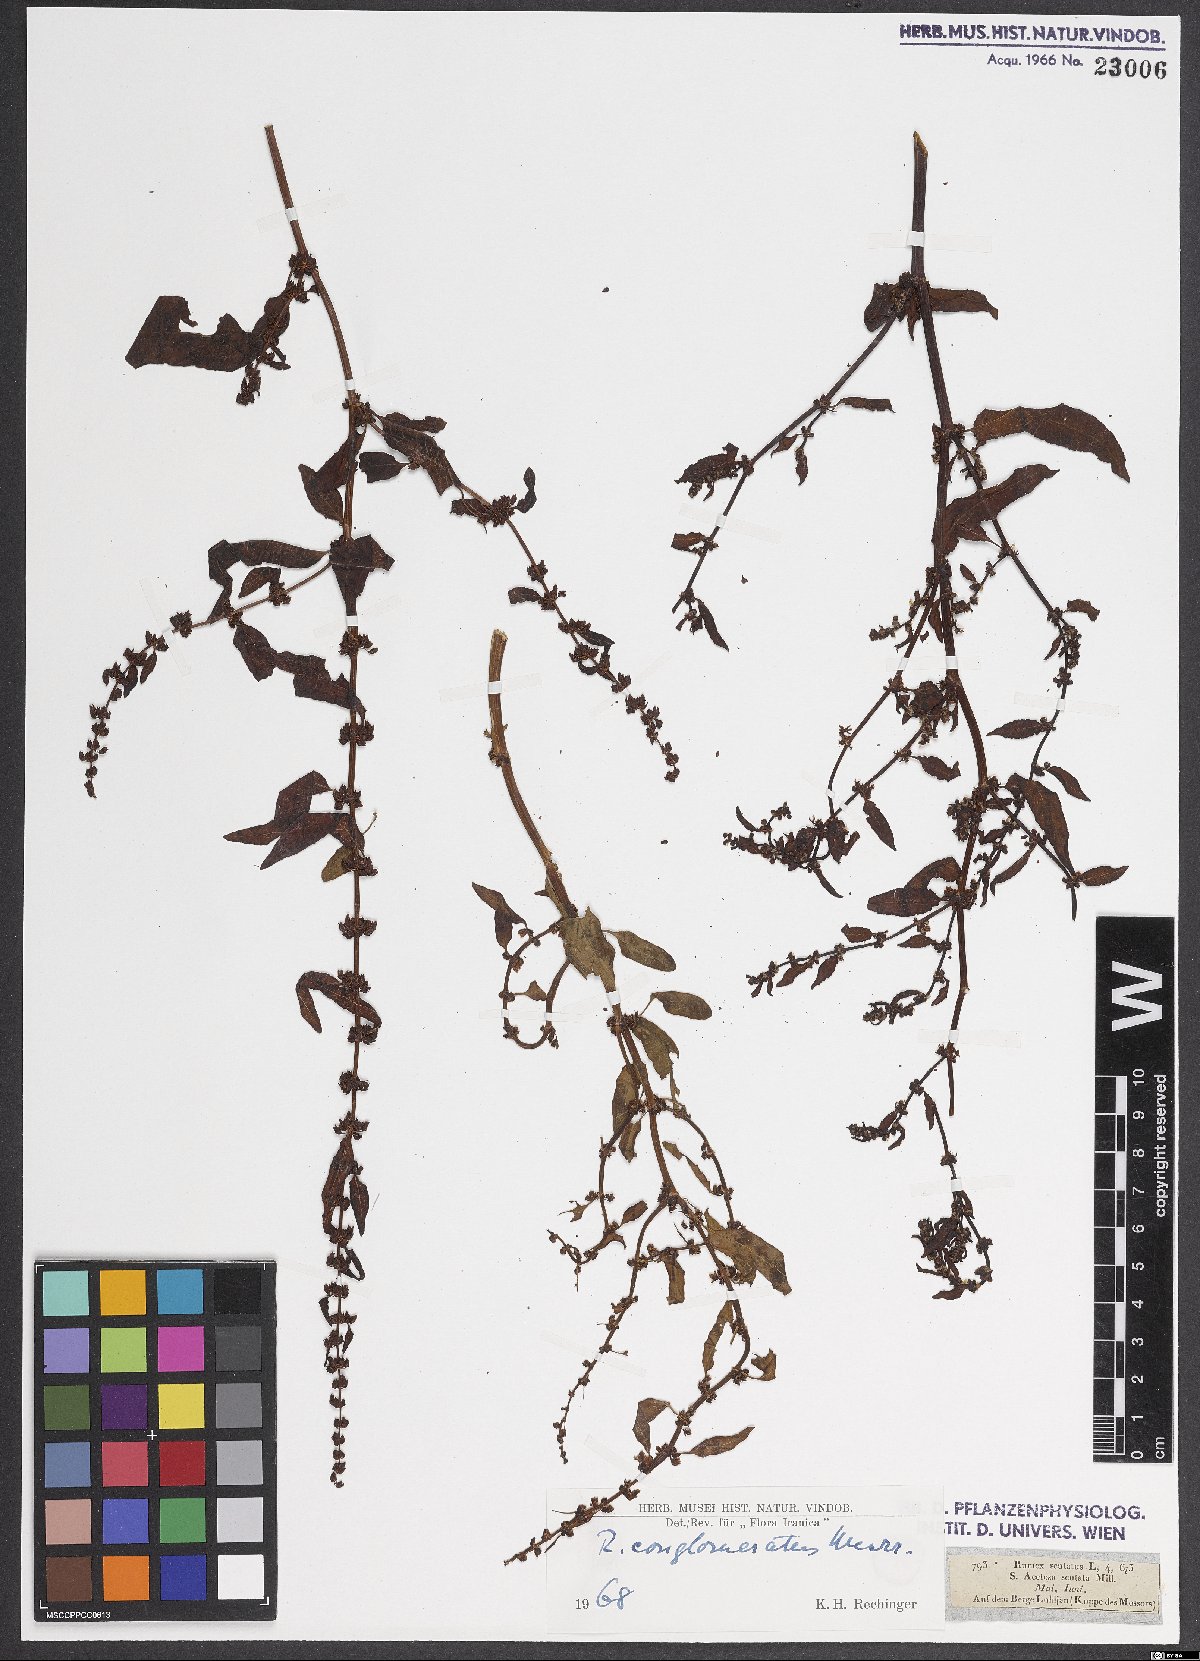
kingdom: Plantae
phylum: Tracheophyta
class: Magnoliopsida
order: Caryophyllales
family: Polygonaceae
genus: Rumex
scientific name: Rumex conglomeratus
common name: Clustered dock
